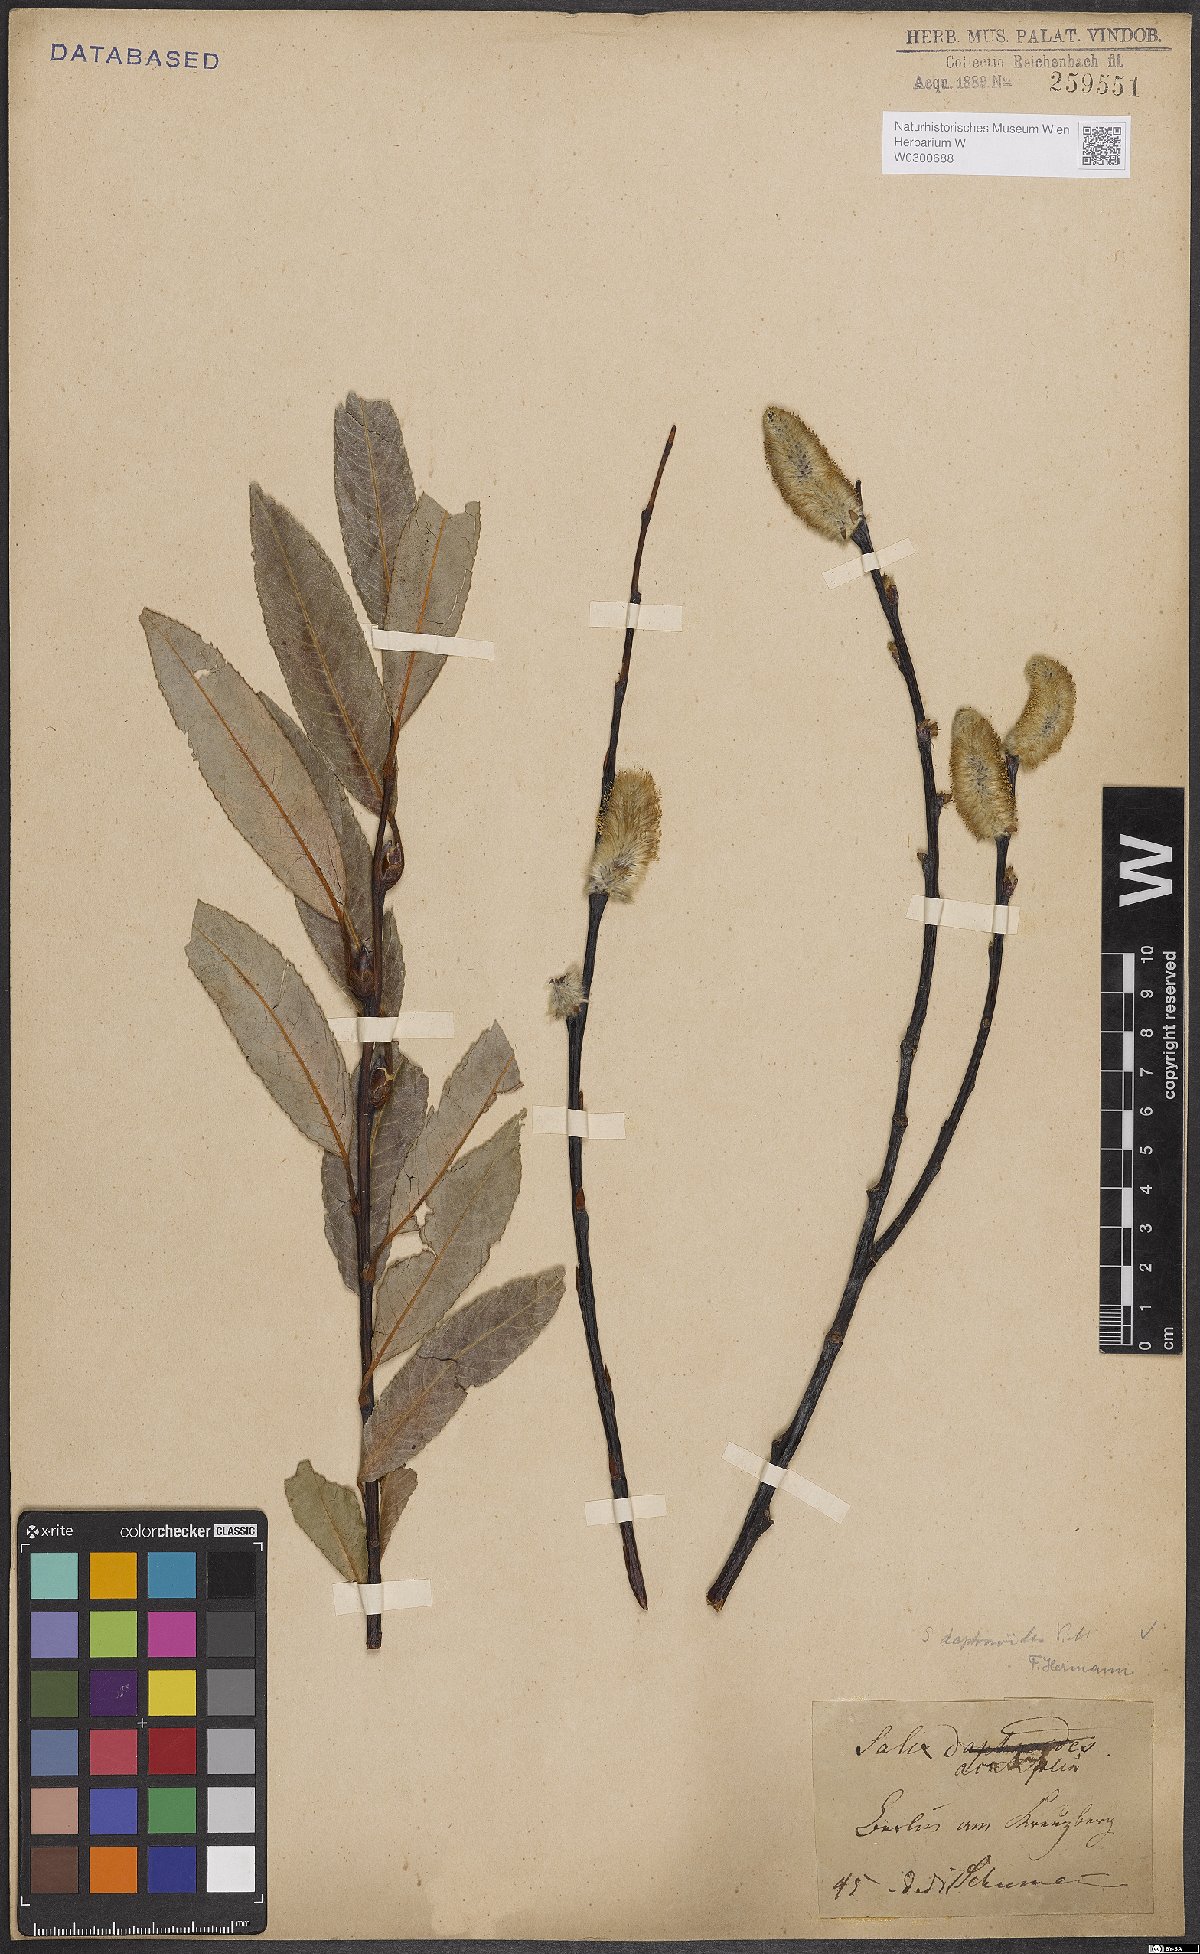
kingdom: Plantae
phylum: Tracheophyta
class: Magnoliopsida
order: Malpighiales
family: Salicaceae
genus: Salix
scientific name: Salix daphnoides
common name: European violet-willow
